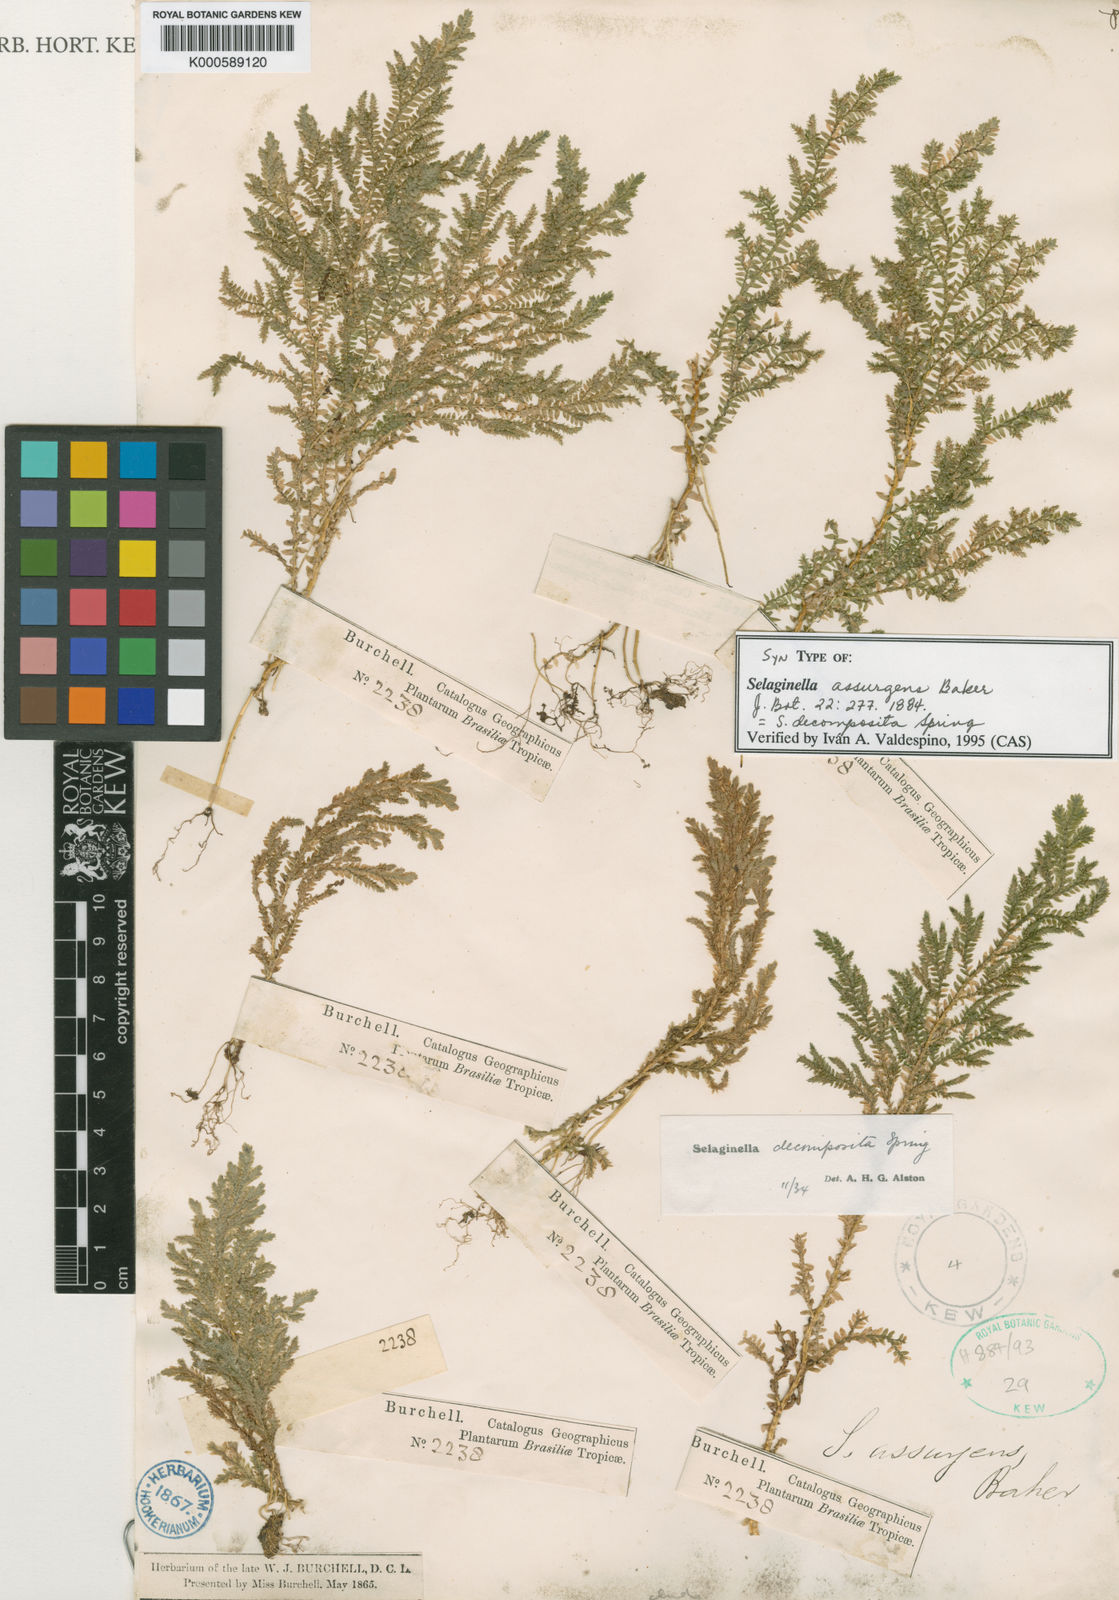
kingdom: Plantae
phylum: Tracheophyta
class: Lycopodiopsida
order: Selaginellales
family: Selaginellaceae
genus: Selaginella
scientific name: Selaginella decomposita
